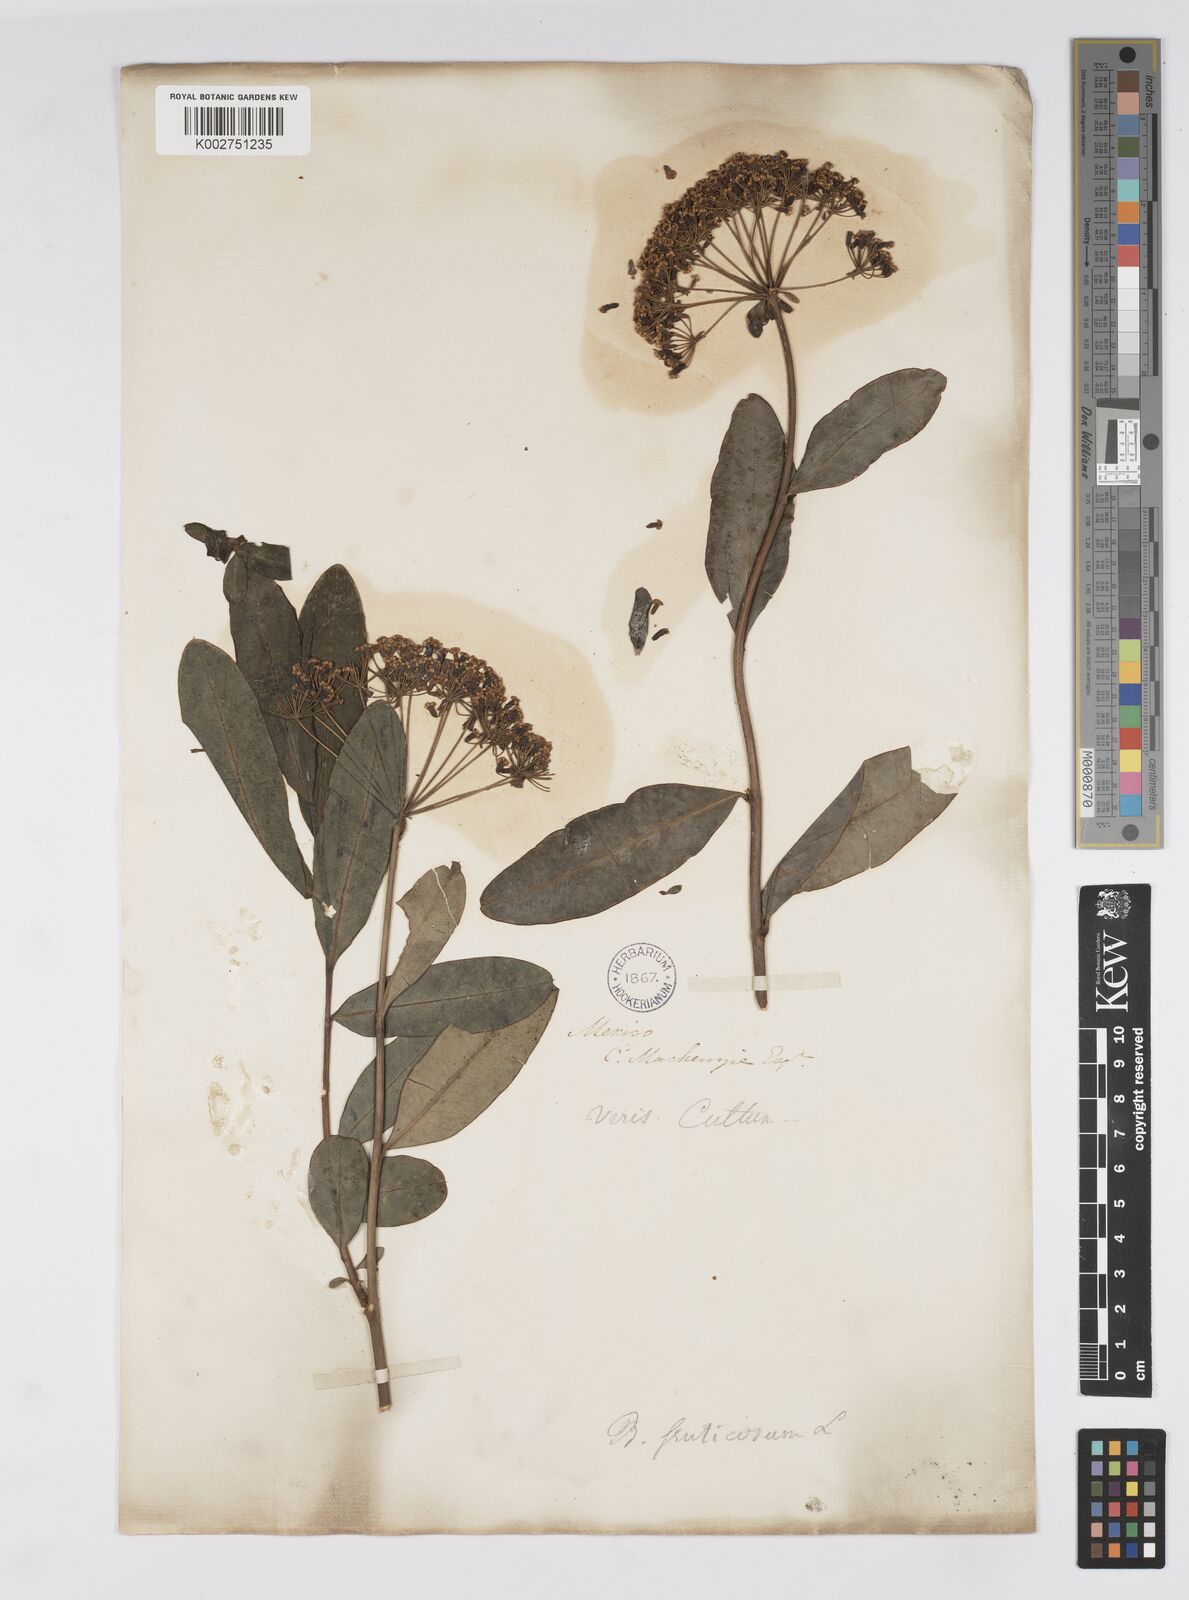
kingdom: Plantae
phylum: Tracheophyta
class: Magnoliopsida
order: Apiales
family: Apiaceae
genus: Bupleurum
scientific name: Bupleurum fruticosum
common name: Shrubby hare's-ear
